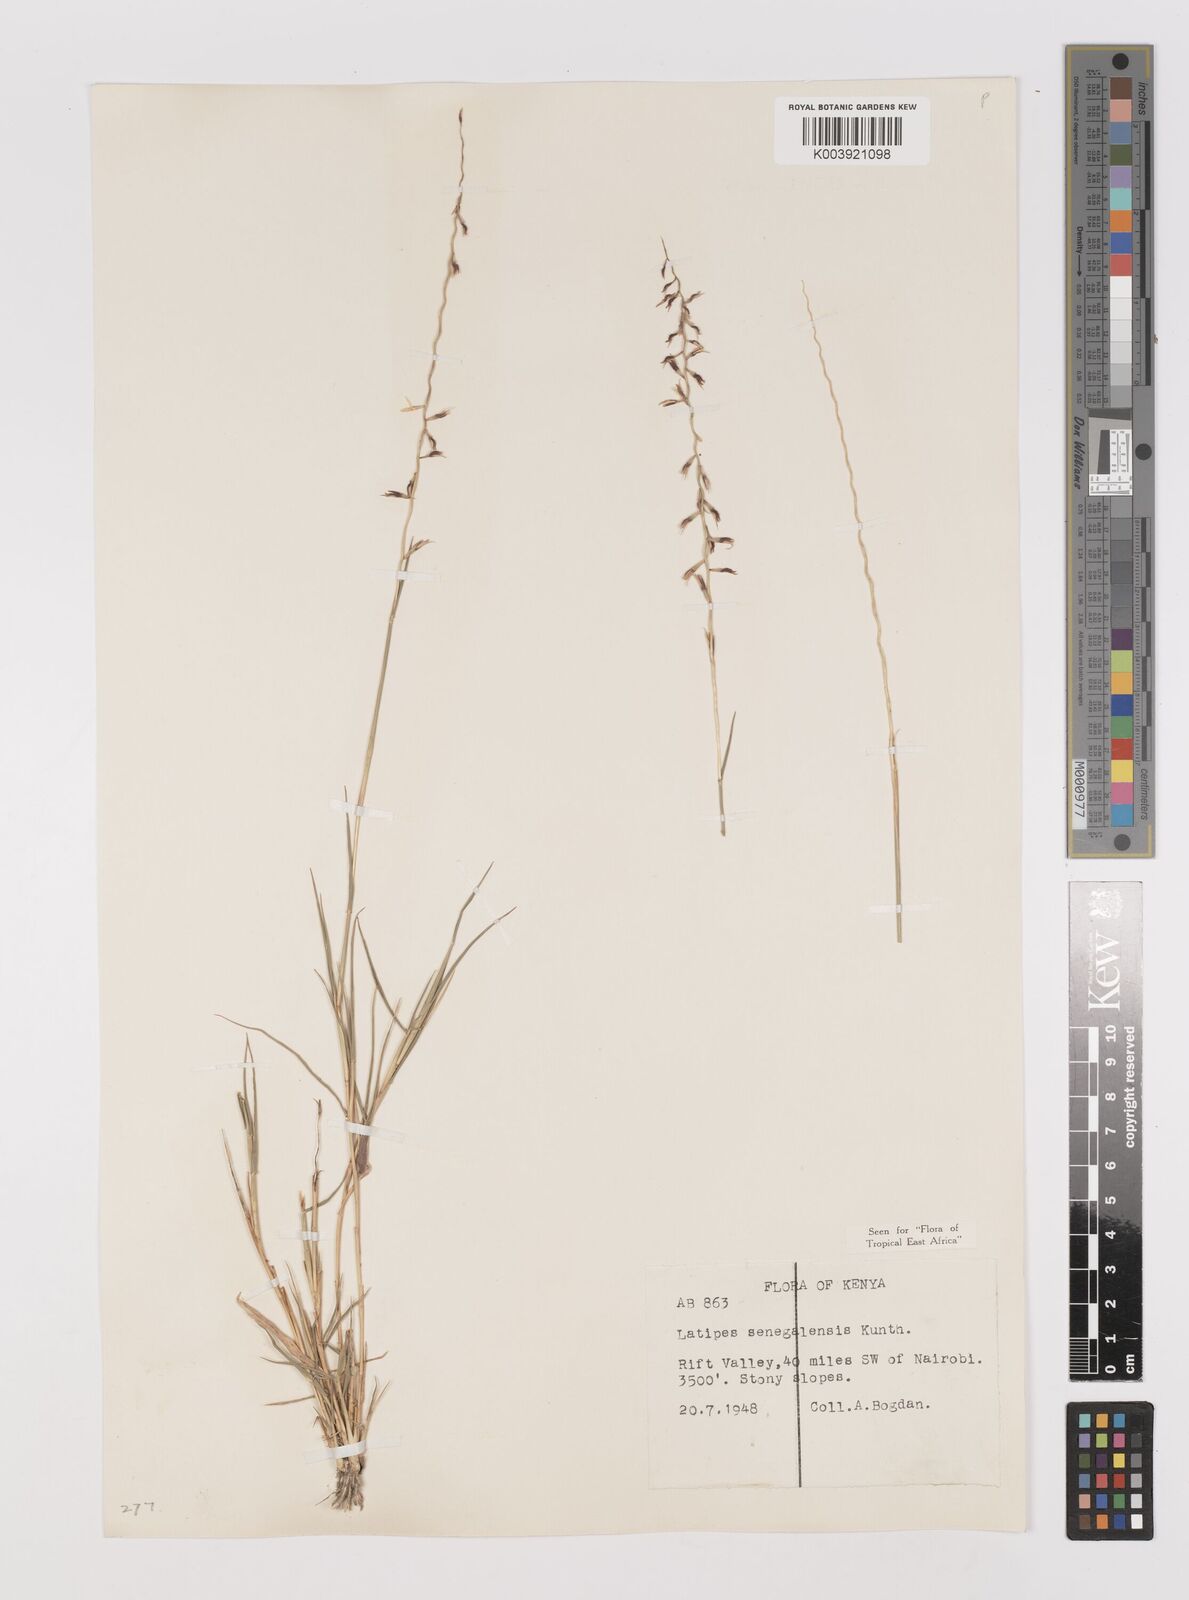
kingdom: Plantae
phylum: Tracheophyta
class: Liliopsida
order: Poales
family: Poaceae
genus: Leptothrium
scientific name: Leptothrium senegalense
